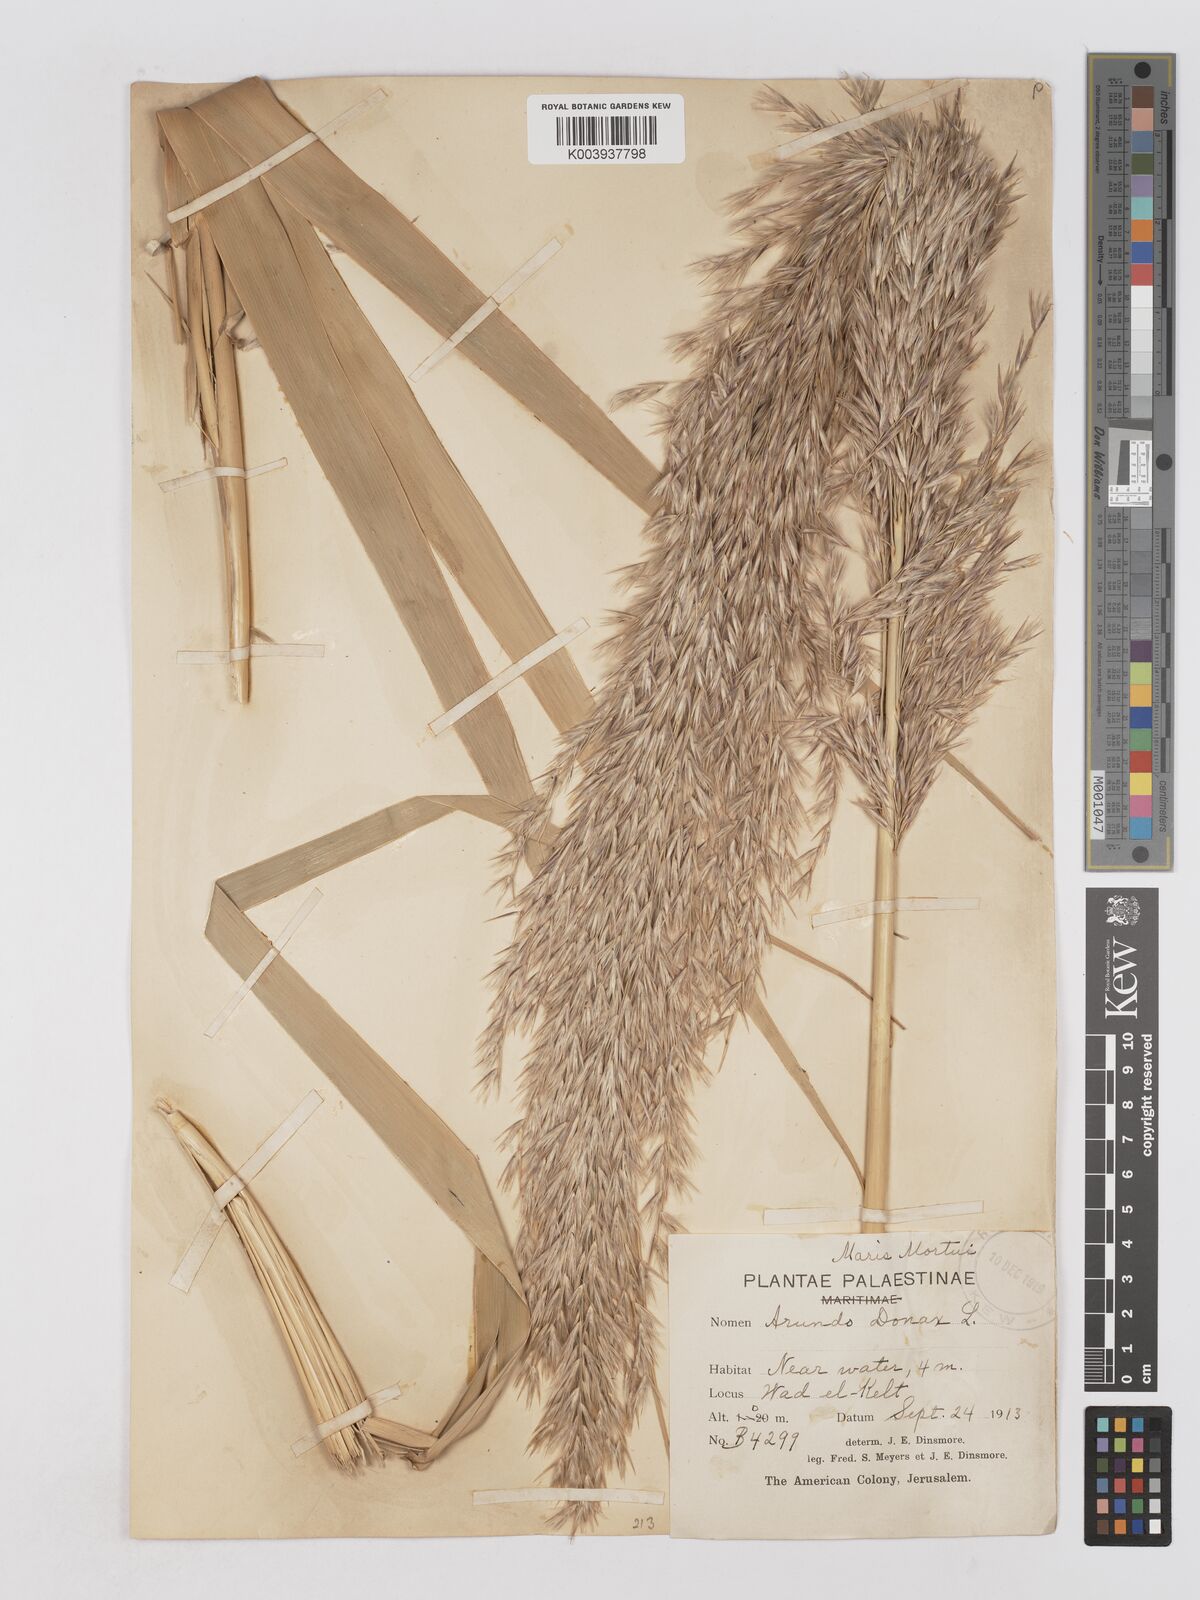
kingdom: Plantae
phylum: Tracheophyta
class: Liliopsida
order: Poales
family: Poaceae
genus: Arundo
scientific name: Arundo donax
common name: Giant reed
